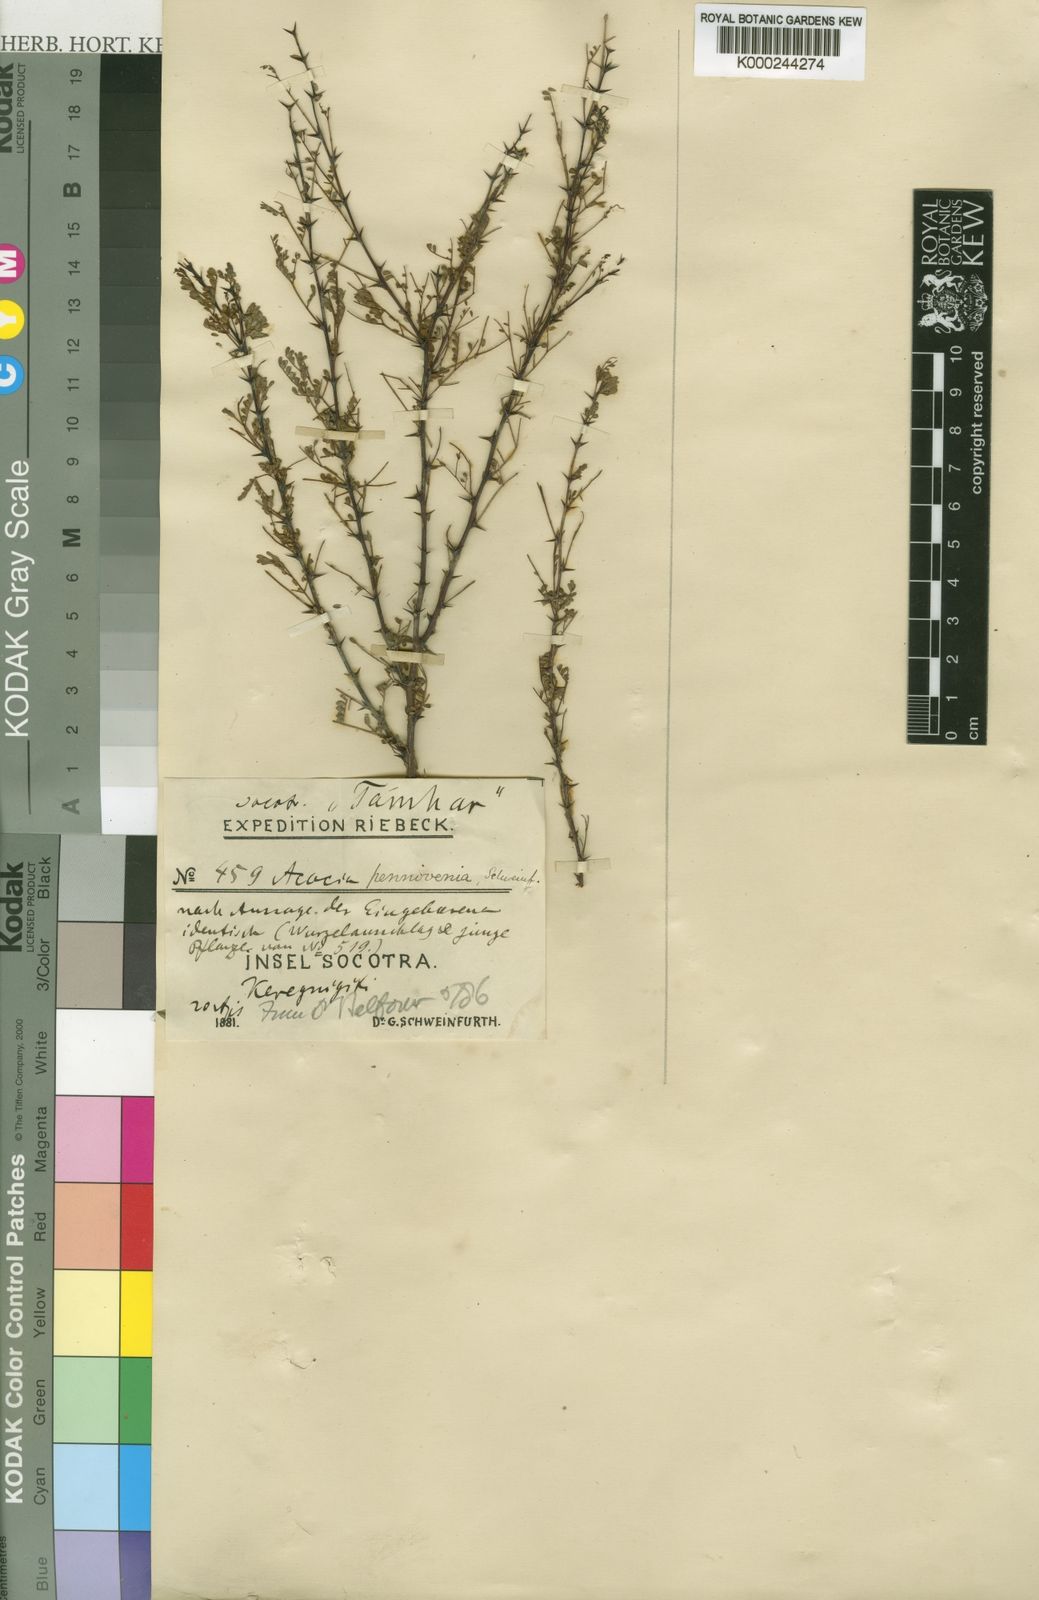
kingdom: Plantae
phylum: Tracheophyta
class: Magnoliopsida
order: Fabales
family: Fabaceae
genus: Acacia
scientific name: Acacia
